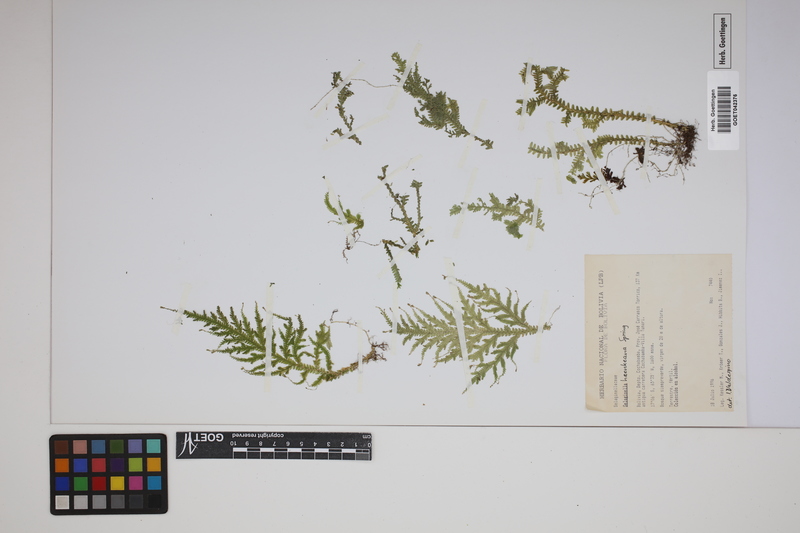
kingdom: Plantae
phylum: Tracheophyta
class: Lycopodiopsida
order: Selaginellales
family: Selaginellaceae
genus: Selaginella
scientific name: Selaginella haenkeana
